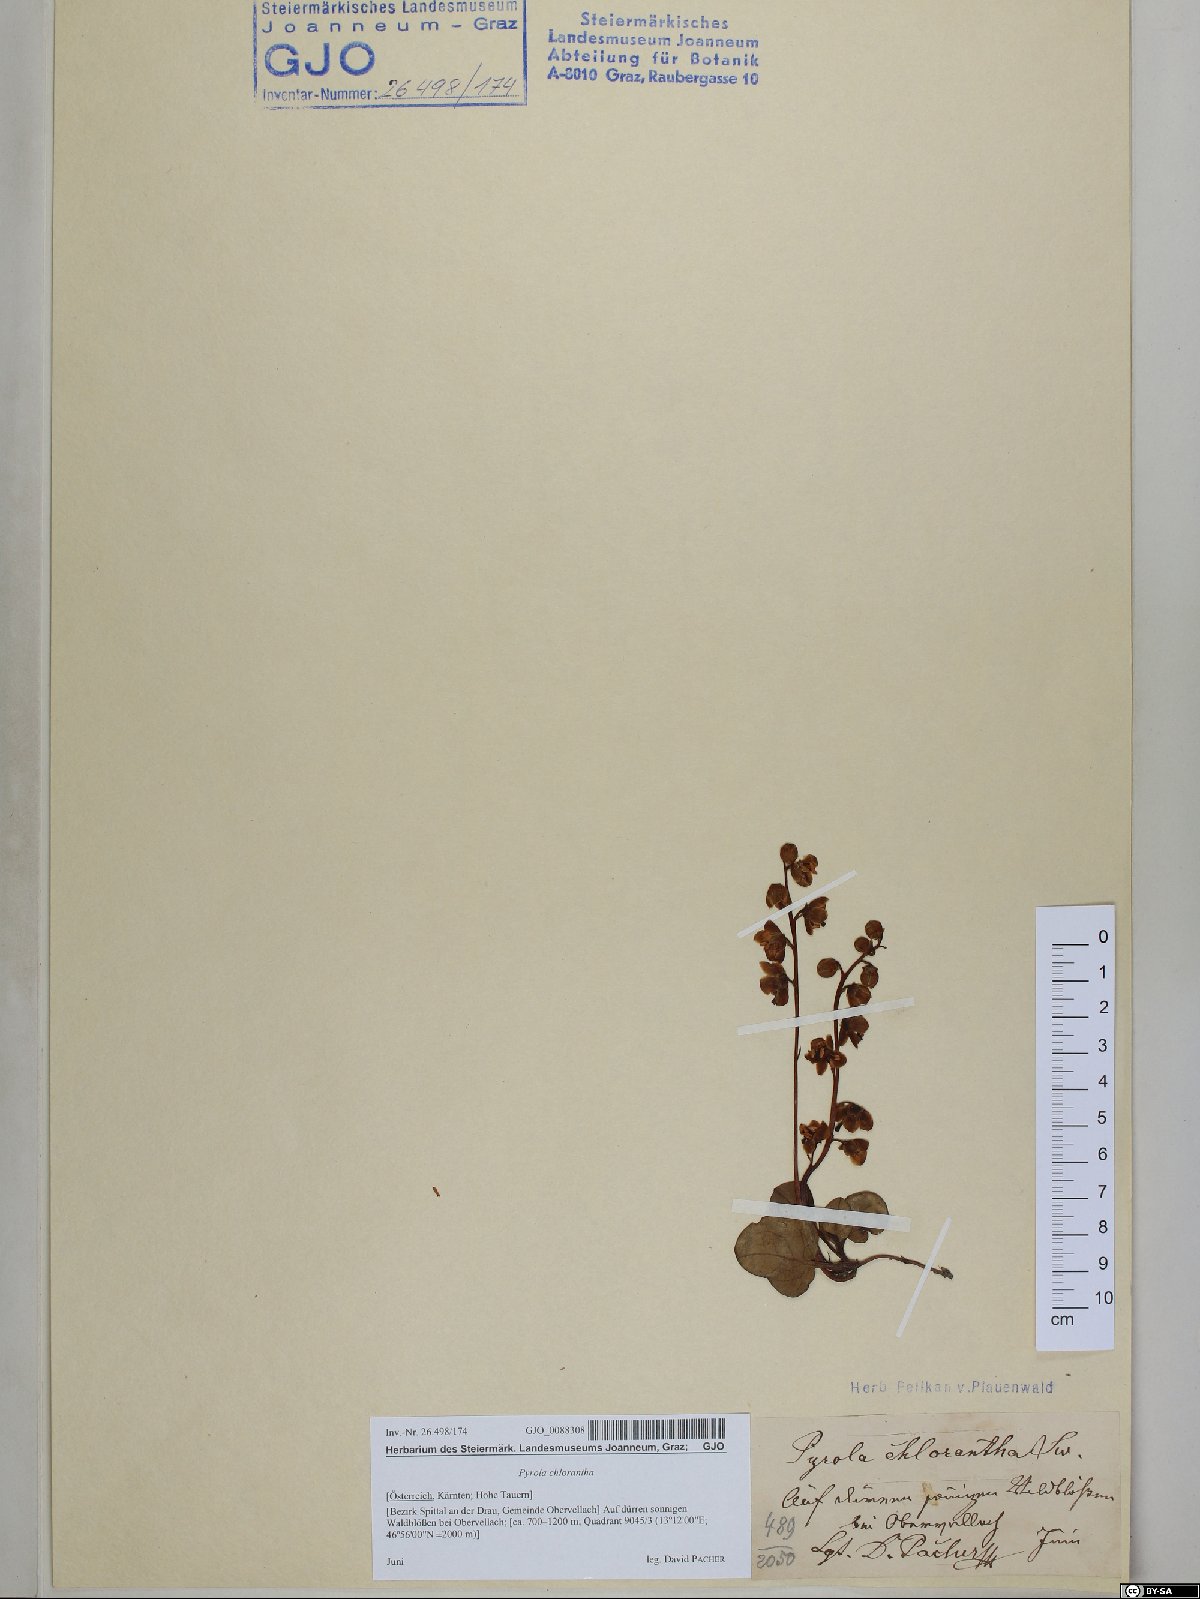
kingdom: Plantae
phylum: Tracheophyta
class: Magnoliopsida
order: Ericales
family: Ericaceae
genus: Pyrola
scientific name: Pyrola chlorantha
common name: Green wintergreen
